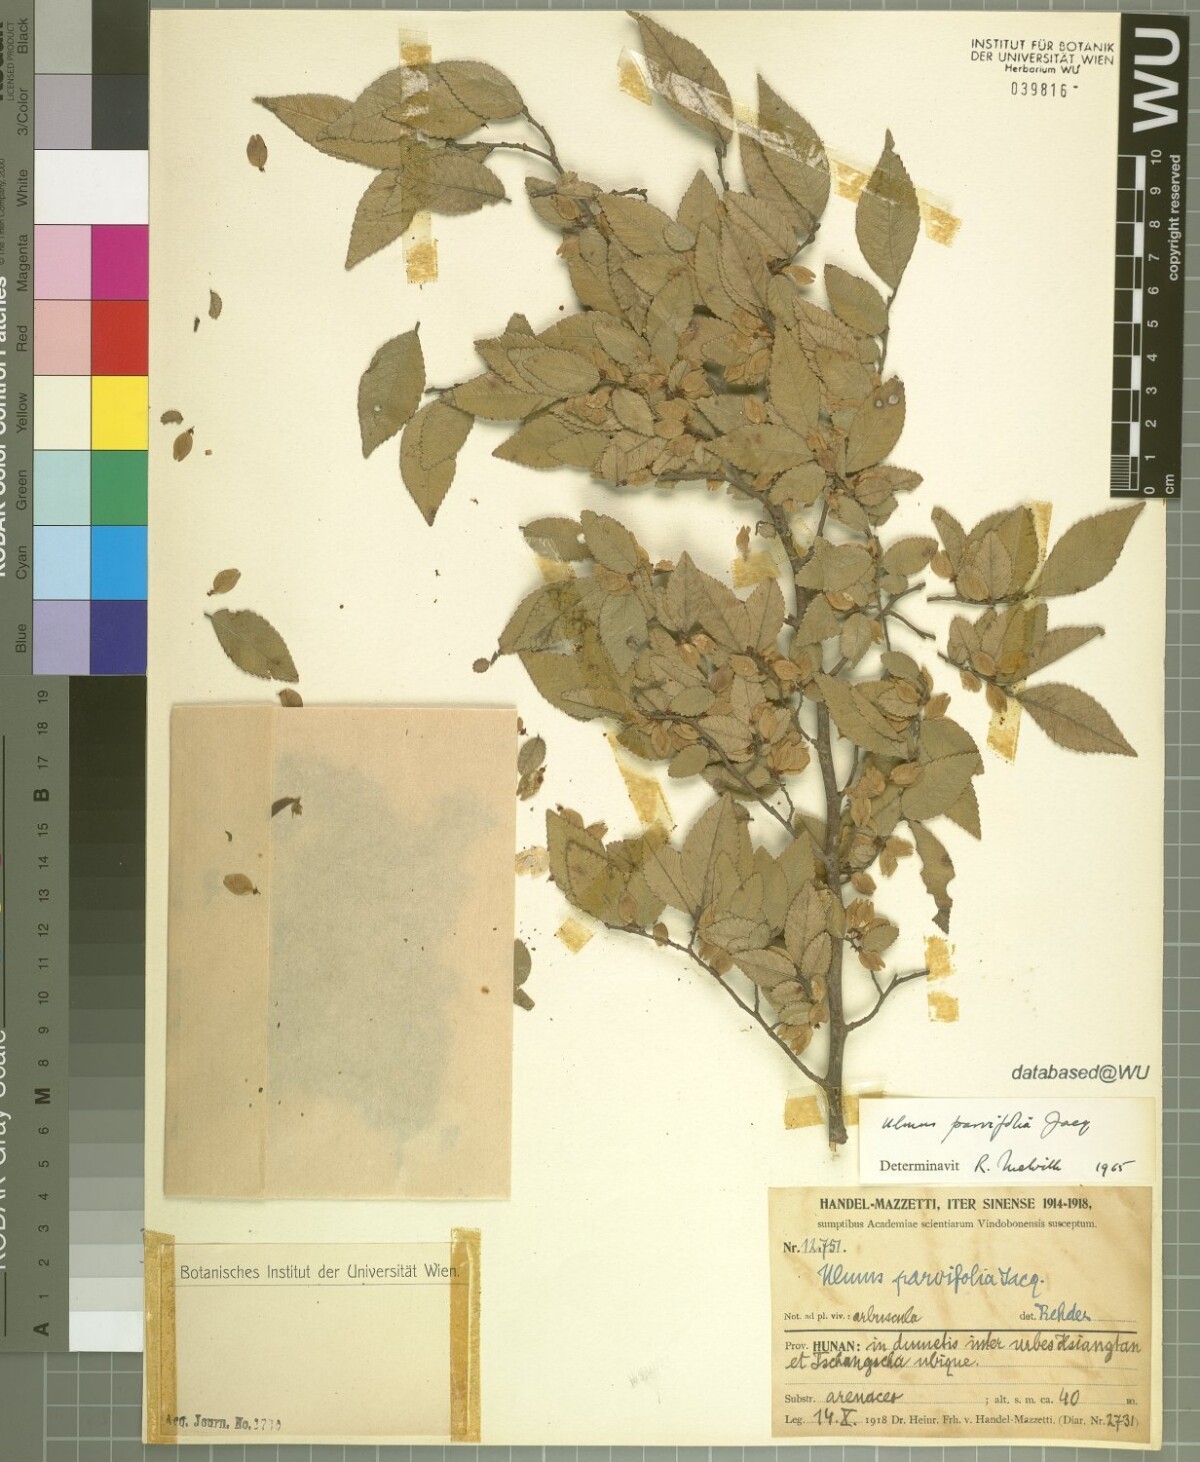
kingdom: Plantae
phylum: Tracheophyta
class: Magnoliopsida
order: Rosales
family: Ulmaceae
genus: Ulmus
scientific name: Ulmus parvifolia
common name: Chinese elm
